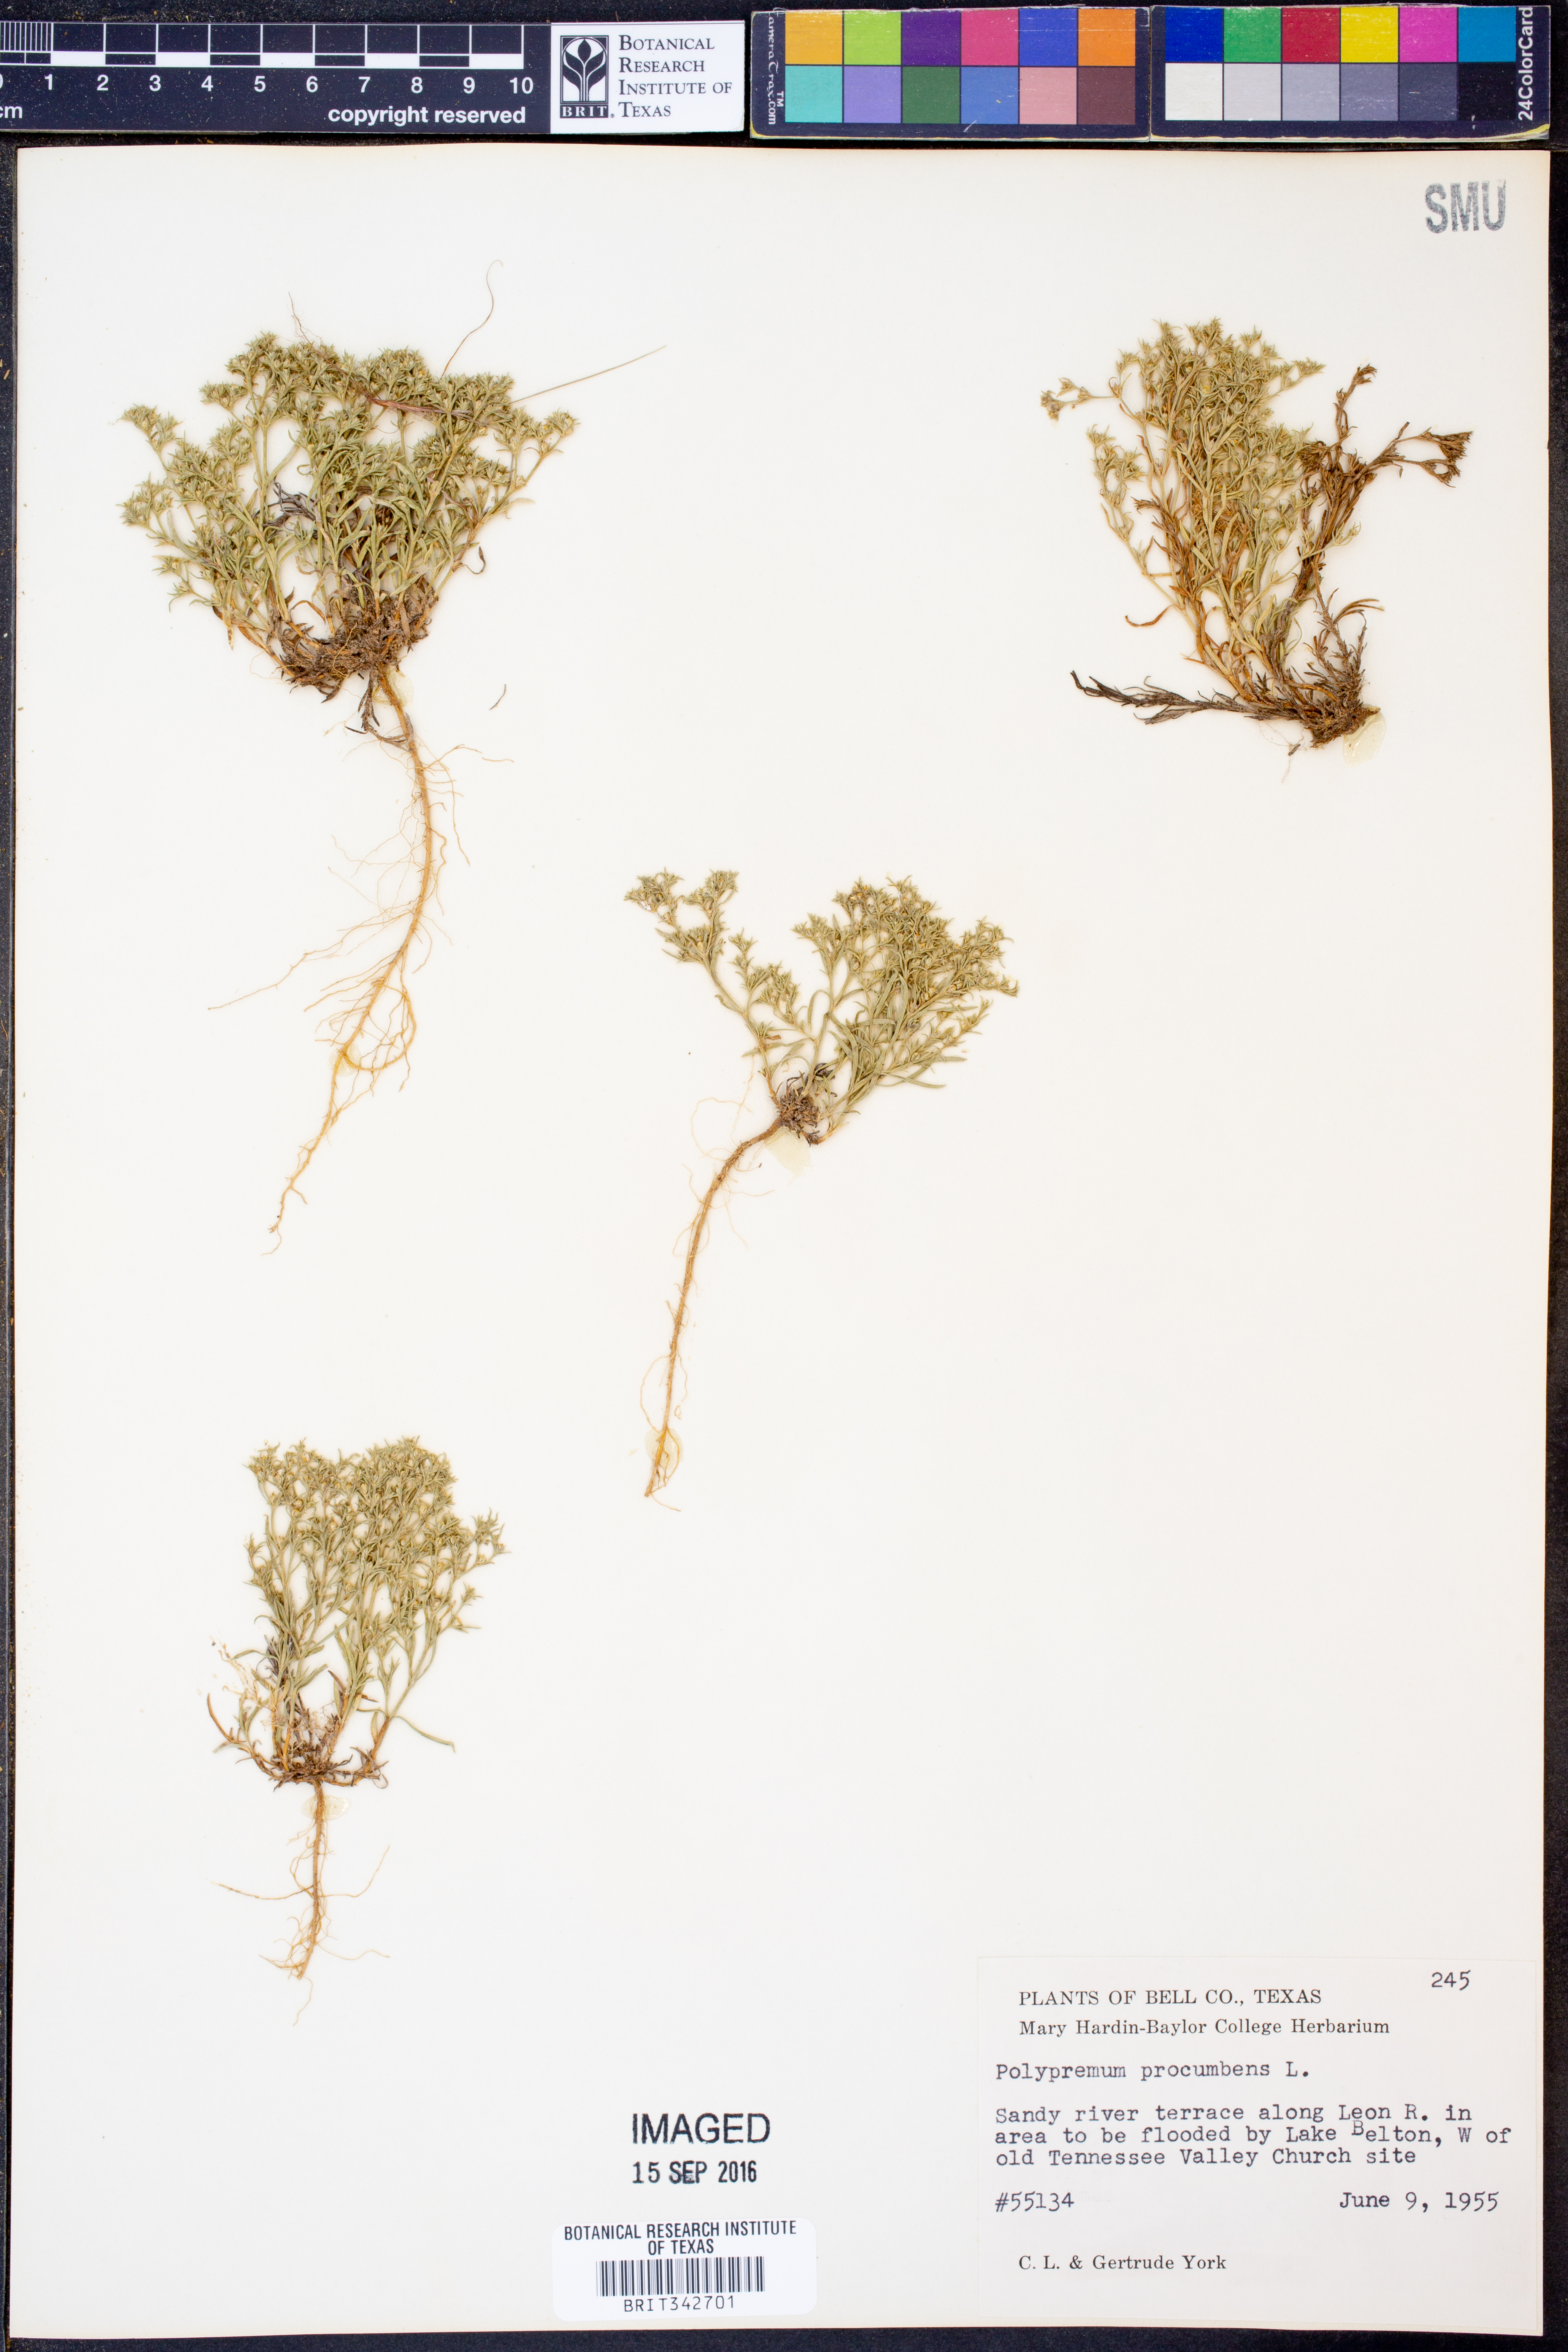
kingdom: Plantae
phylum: Tracheophyta
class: Magnoliopsida
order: Lamiales
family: Tetrachondraceae
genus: Polypremum
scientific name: Polypremum procumbens
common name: Juniper-leaf
